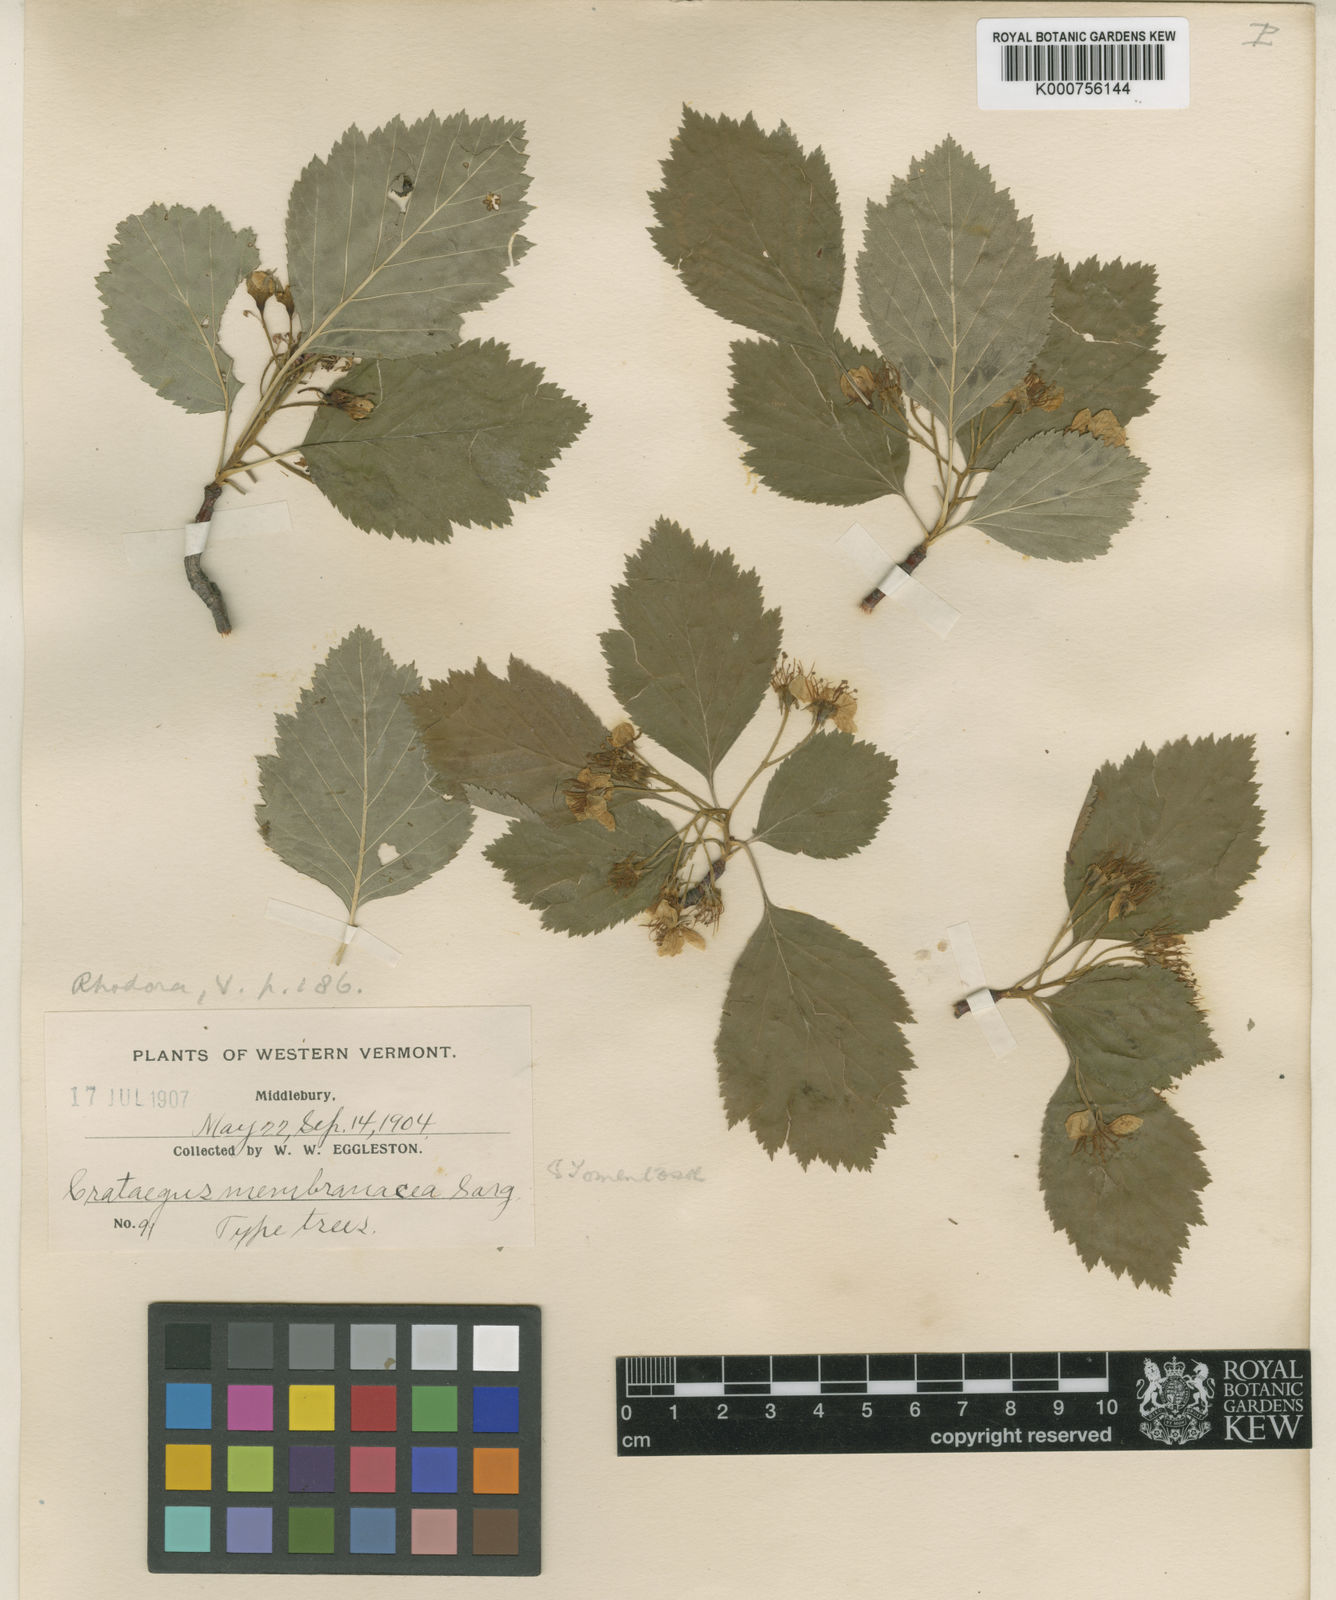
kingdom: Plantae
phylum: Tracheophyta
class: Magnoliopsida
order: Rosales
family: Rosaceae
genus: Crataegus
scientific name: Crataegus succulenta
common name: Fleshy hawthorn
